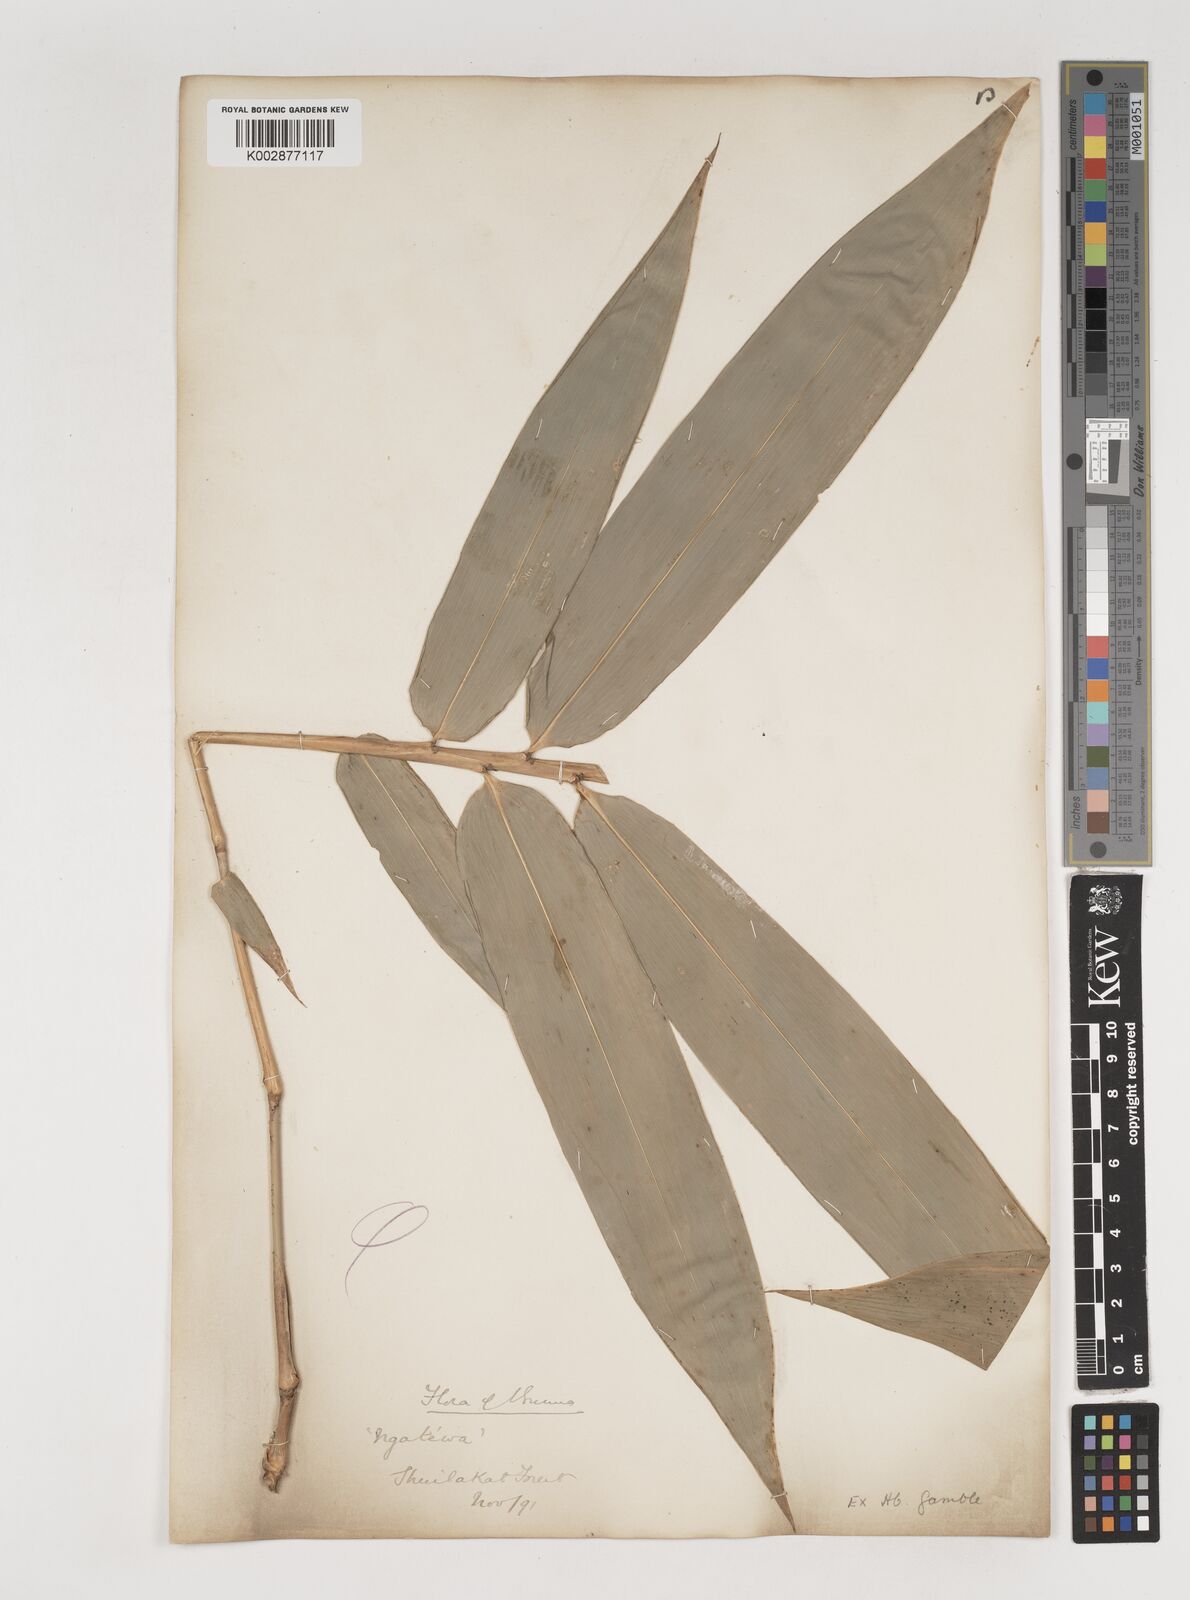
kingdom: Plantae
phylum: Tracheophyta
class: Liliopsida
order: Poales
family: Poaceae
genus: Bambusa
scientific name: Bambusa
